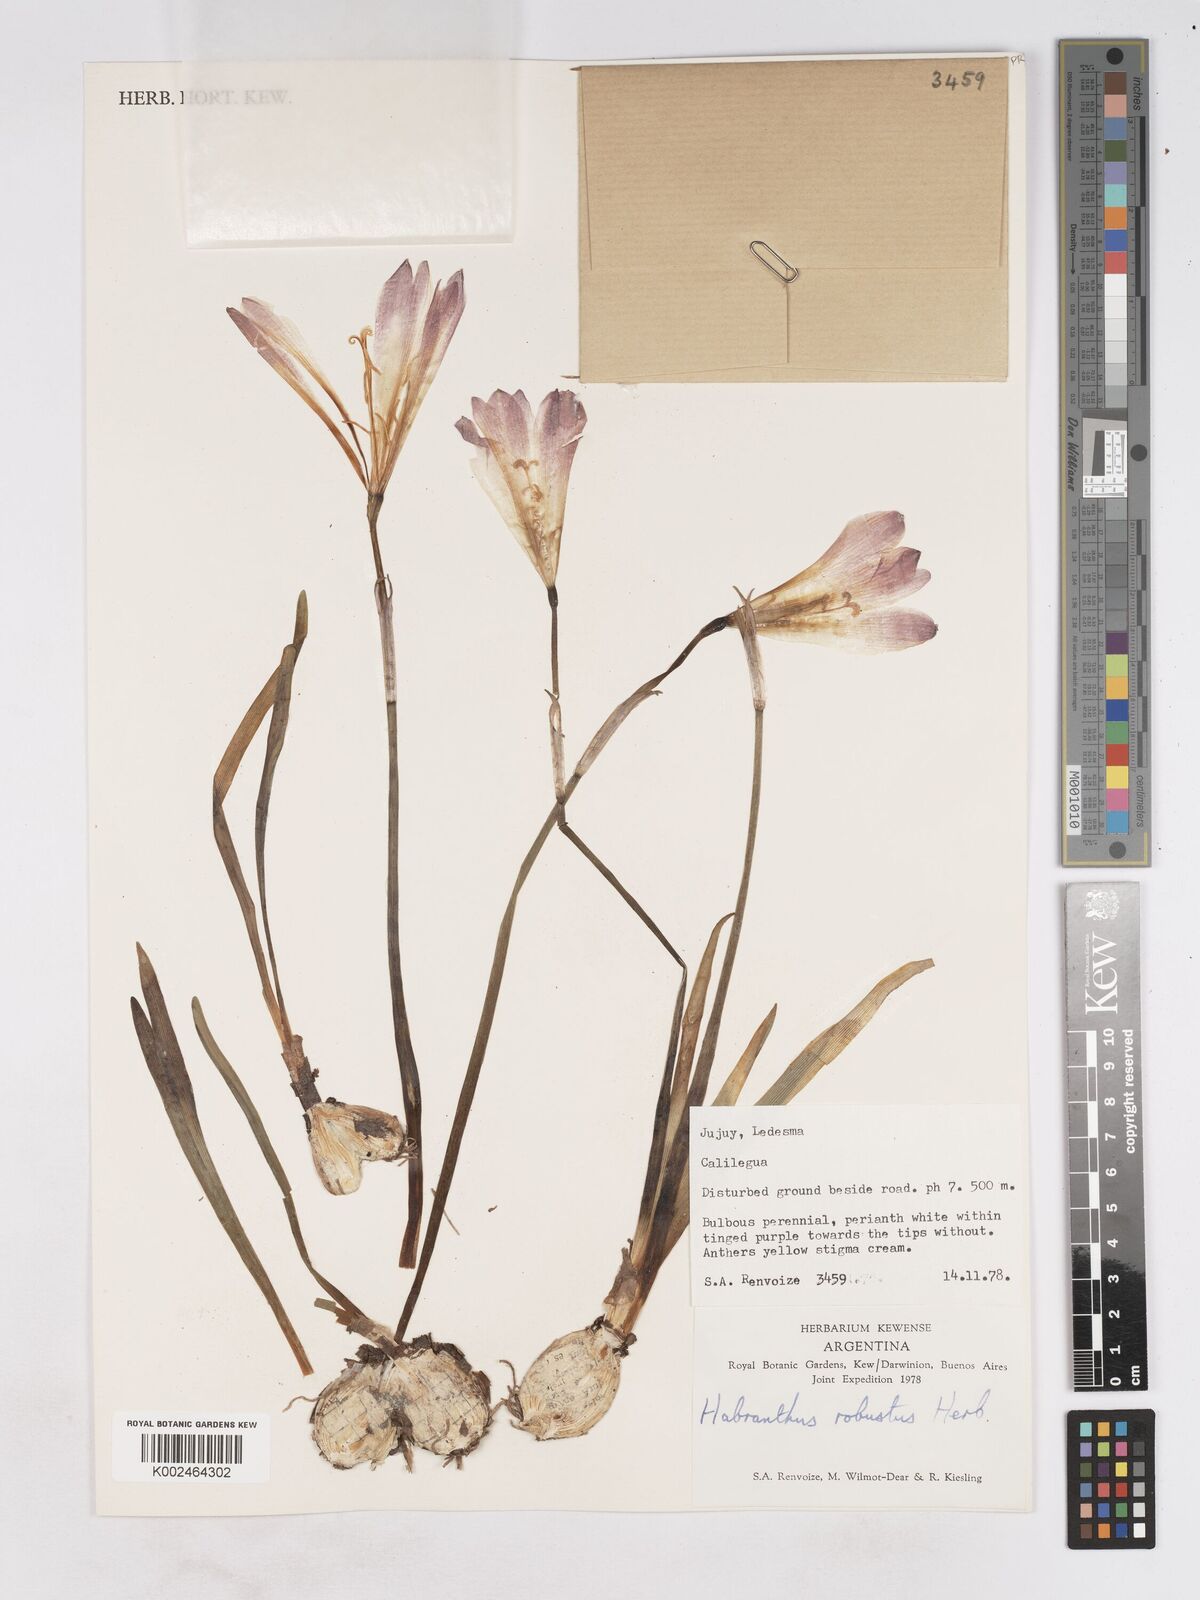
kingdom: Plantae
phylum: Tracheophyta
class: Liliopsida
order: Asparagales
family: Amaryllidaceae
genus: Zephyranthes
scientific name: Zephyranthes robusta
